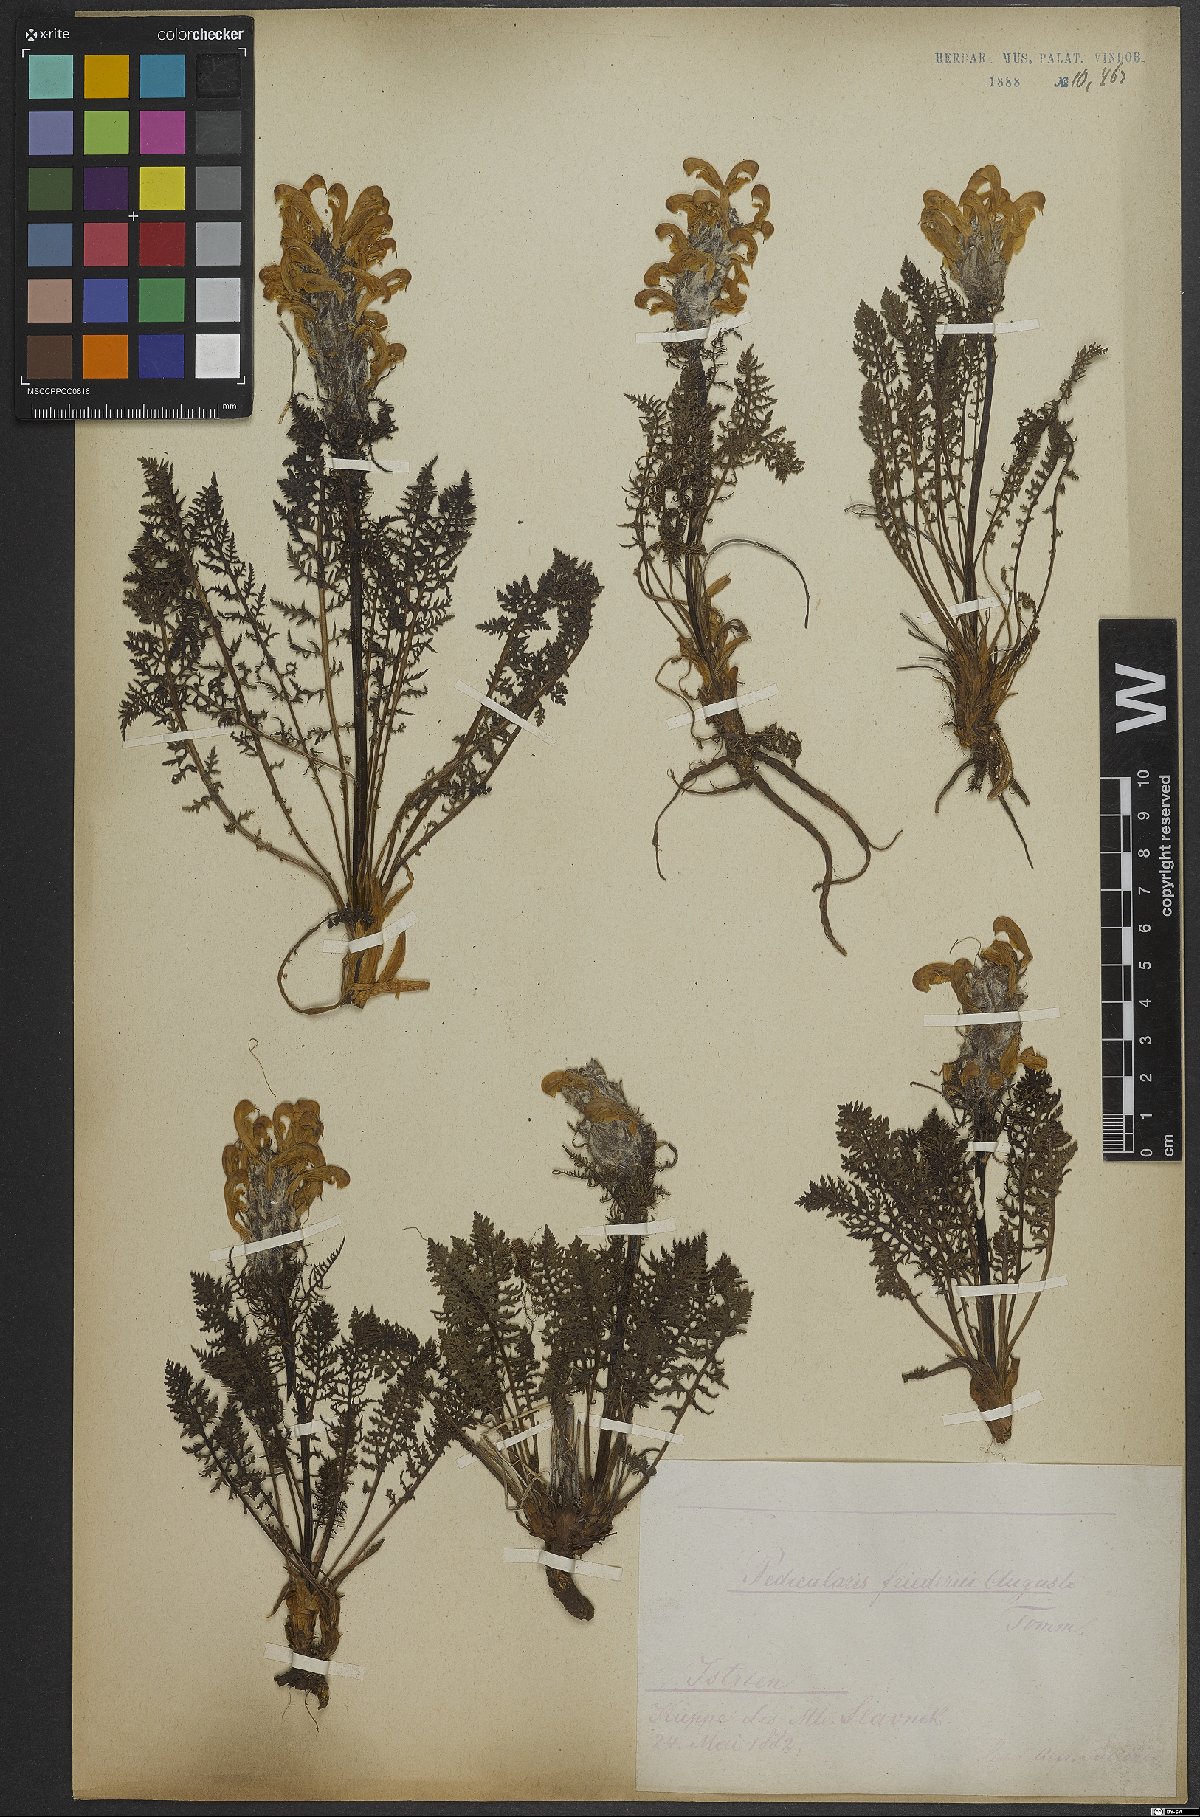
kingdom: Plantae
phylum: Tracheophyta
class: Magnoliopsida
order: Lamiales
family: Orobanchaceae
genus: Pedicularis
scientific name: Pedicularis friderici-augusti
